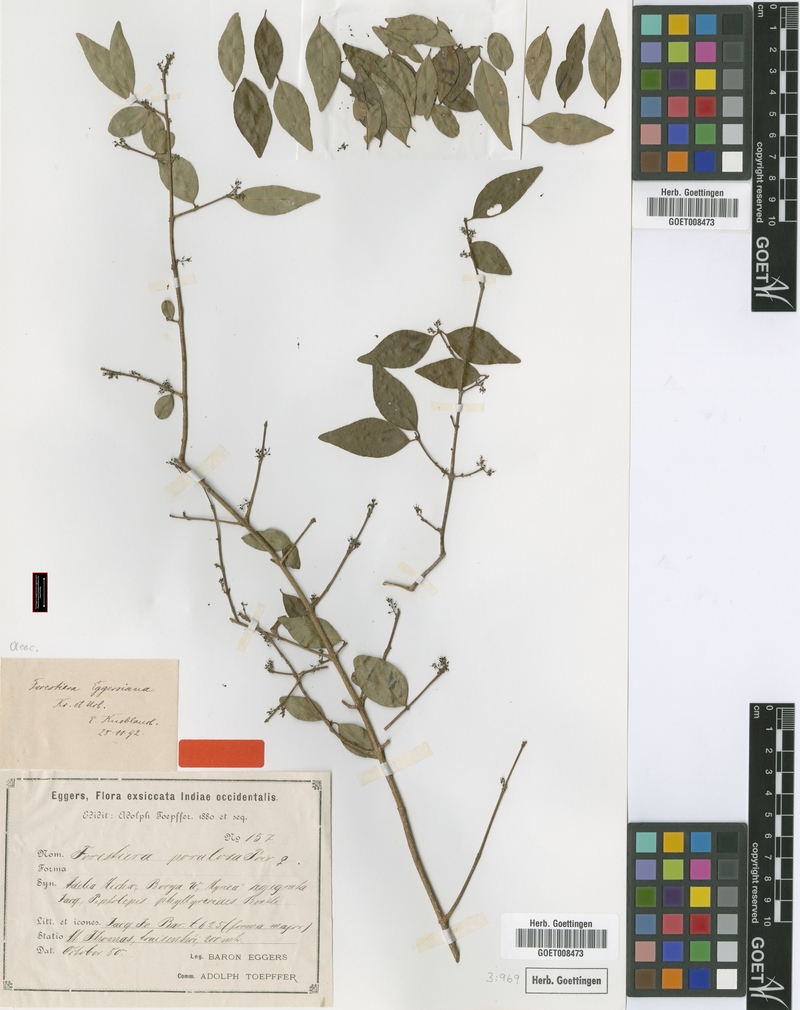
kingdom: Plantae
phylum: Tracheophyta
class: Magnoliopsida
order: Lamiales
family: Oleaceae
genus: Forestiera
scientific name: Forestiera eggersiana
